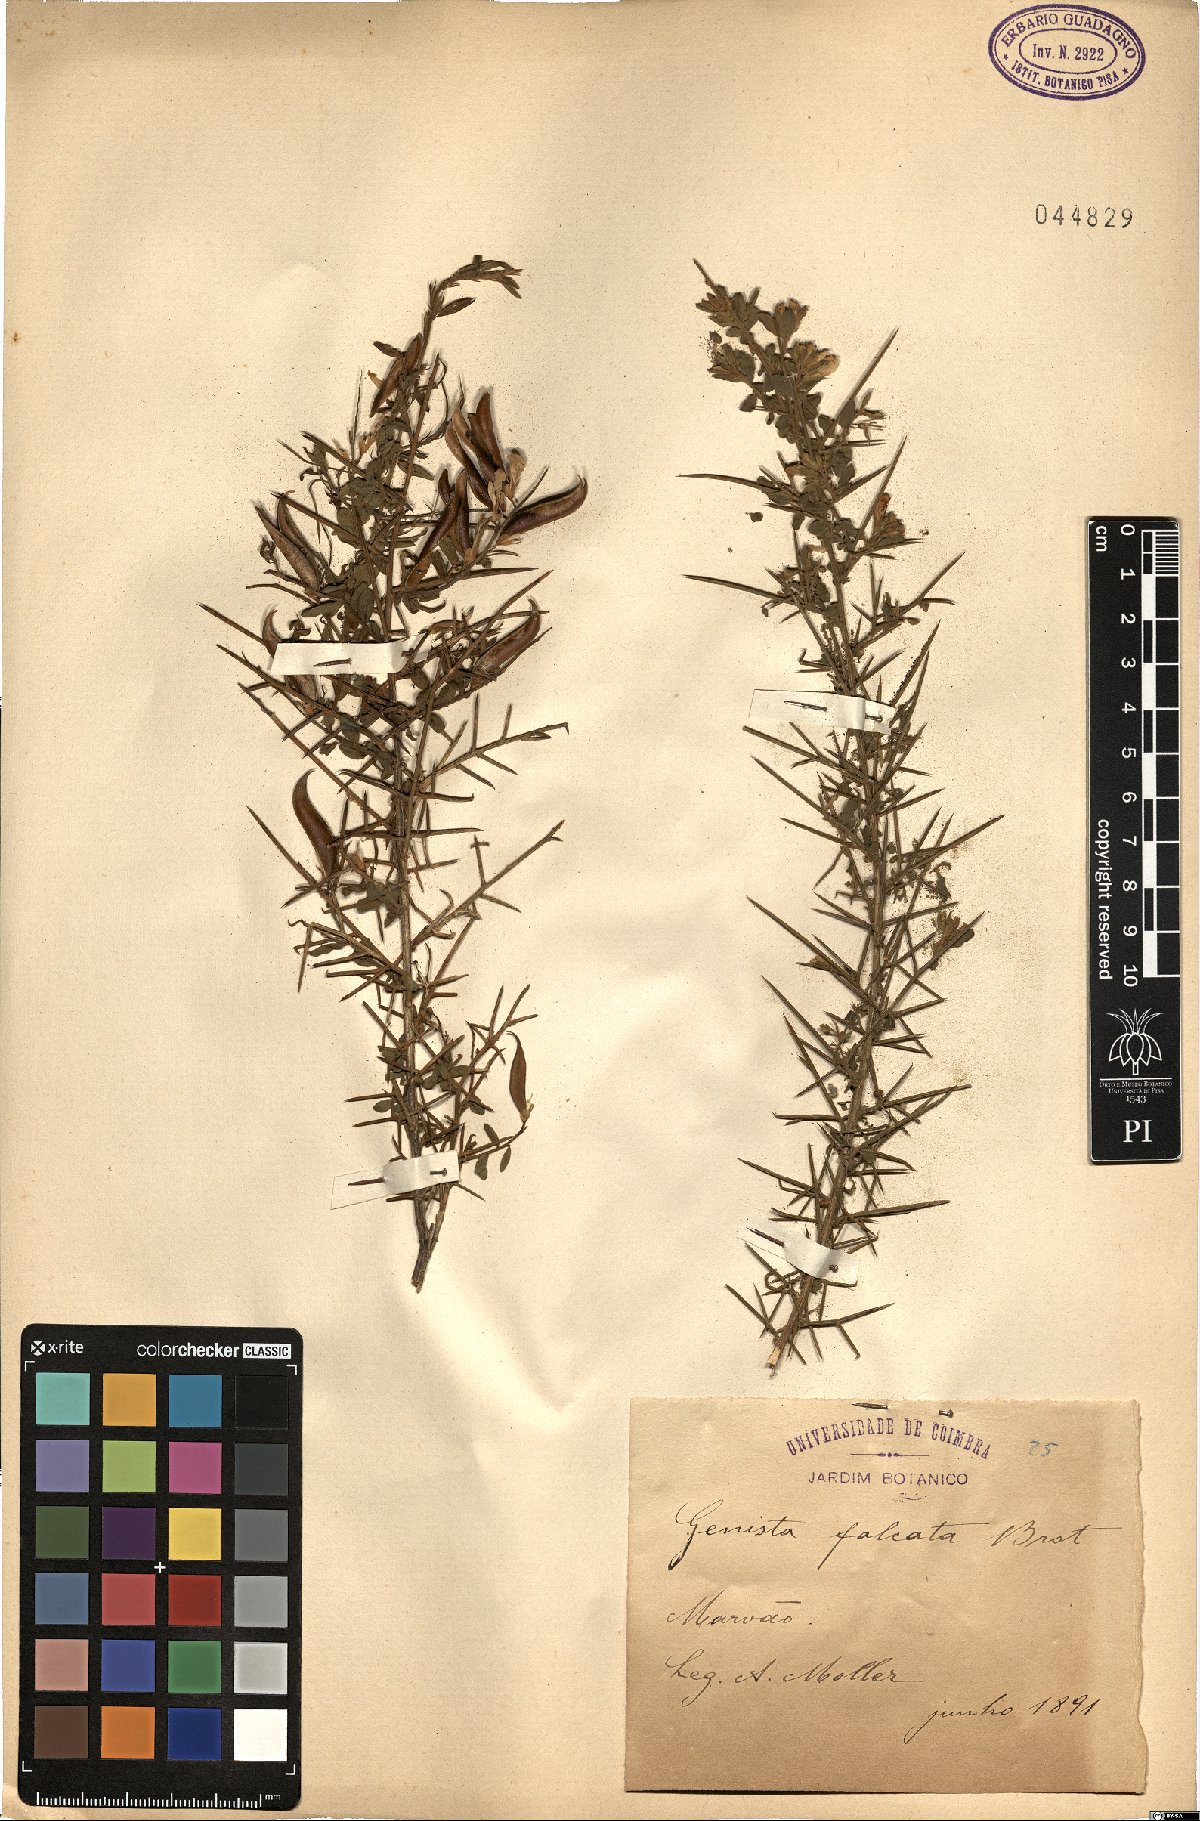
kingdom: Plantae
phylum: Tracheophyta
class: Magnoliopsida
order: Fabales
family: Fabaceae
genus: Genista
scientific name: Genista falcata
